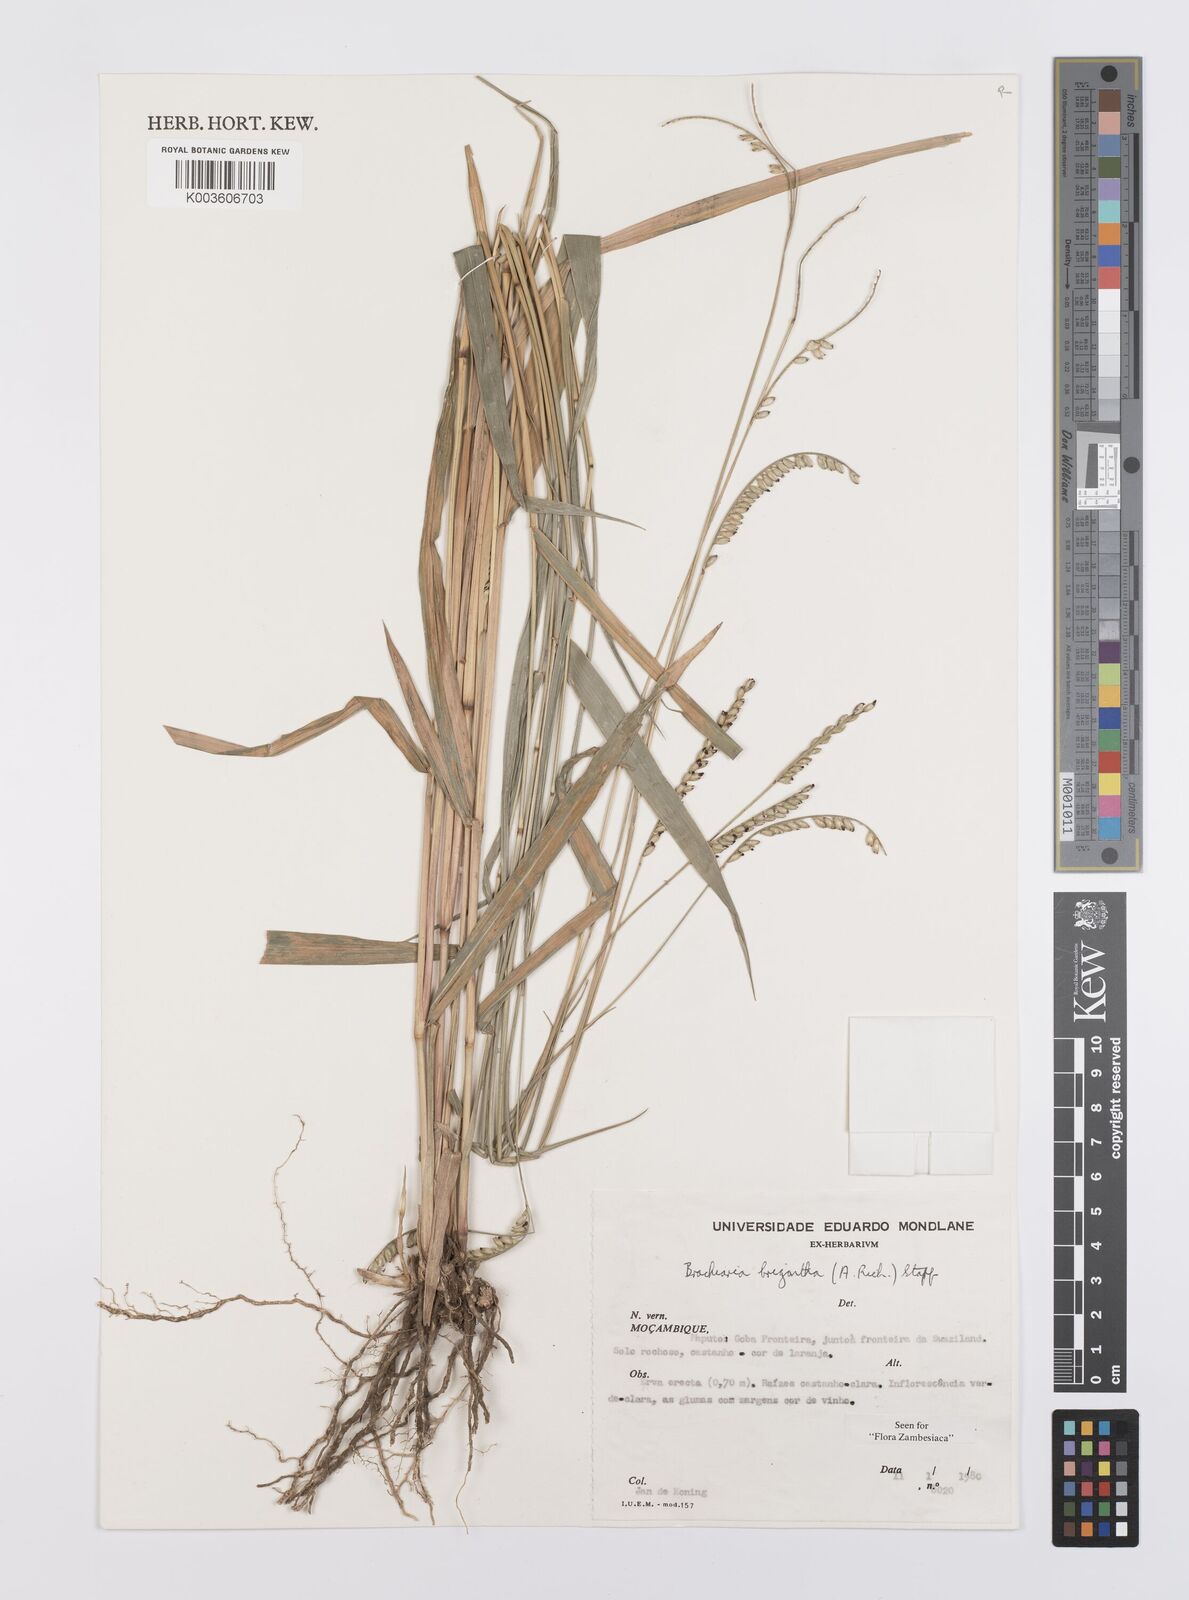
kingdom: Plantae
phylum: Tracheophyta
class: Liliopsida
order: Poales
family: Poaceae
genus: Urochloa
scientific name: Urochloa brizantha
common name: Palisade signalgrass
